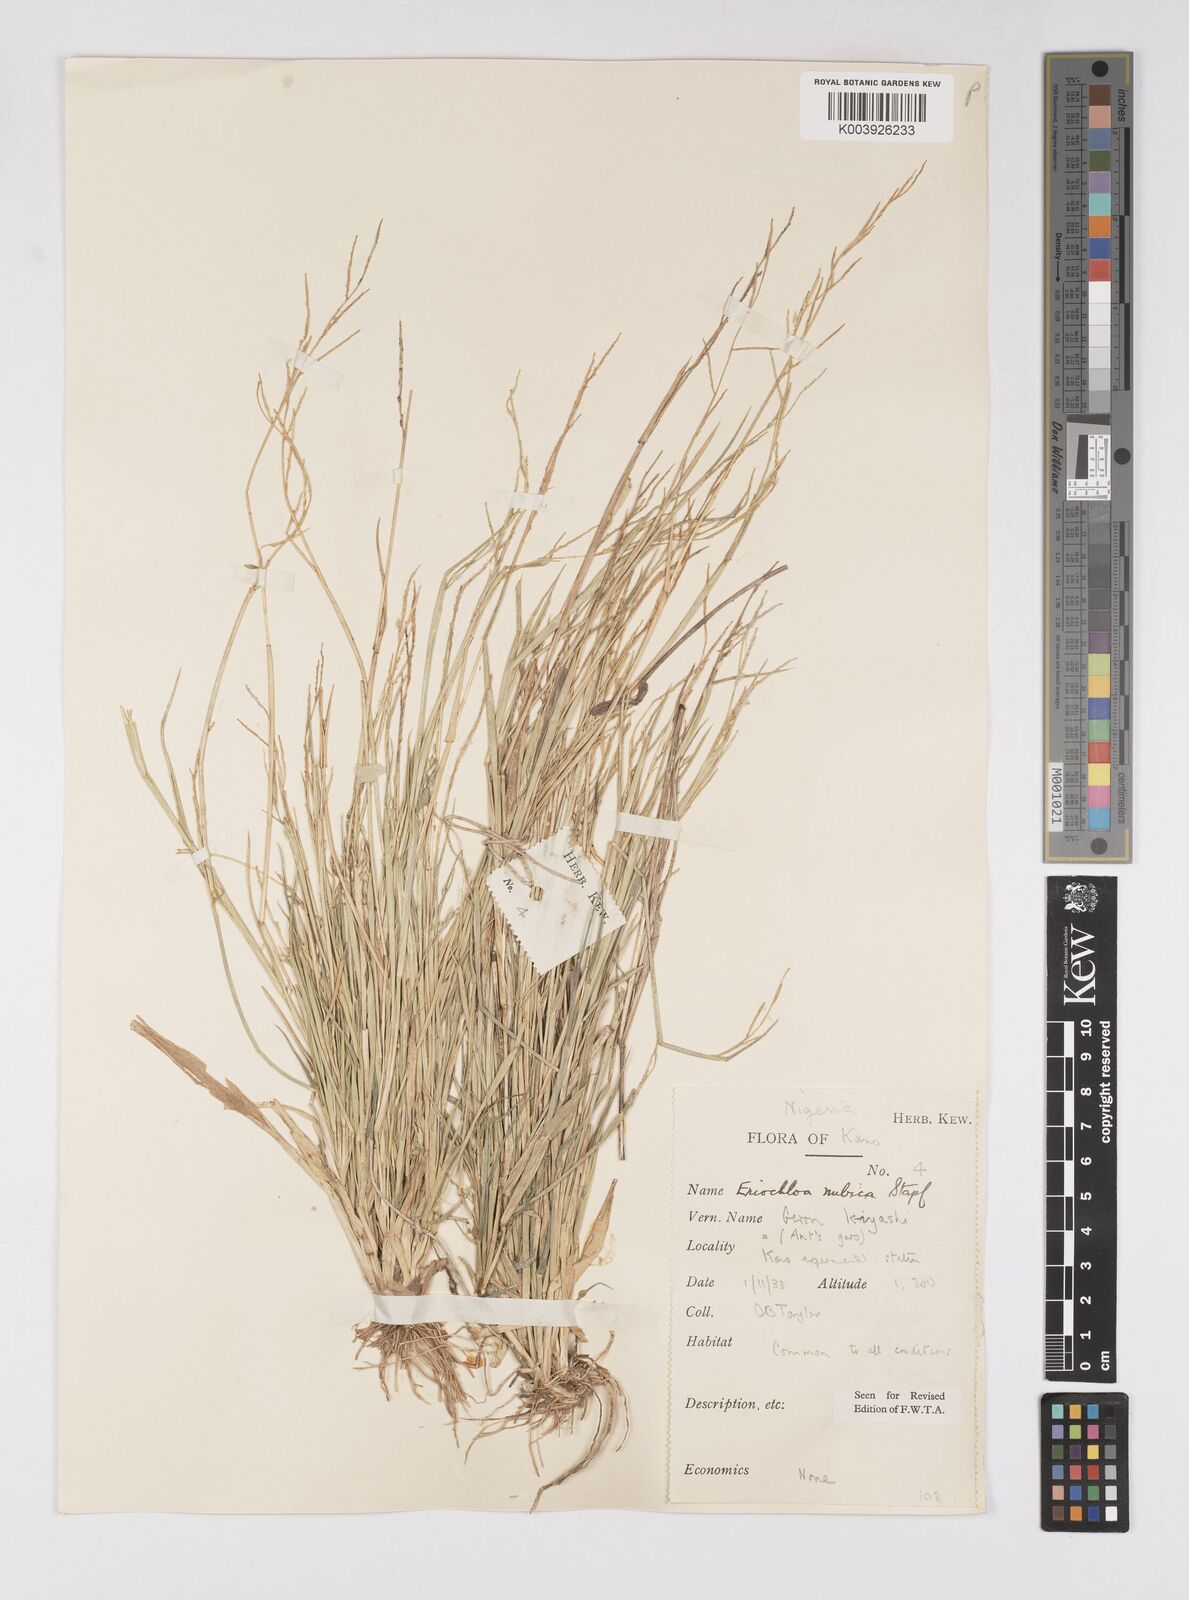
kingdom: Plantae
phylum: Tracheophyta
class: Liliopsida
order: Poales
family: Poaceae
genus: Eriochloa
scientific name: Eriochloa barbatus
